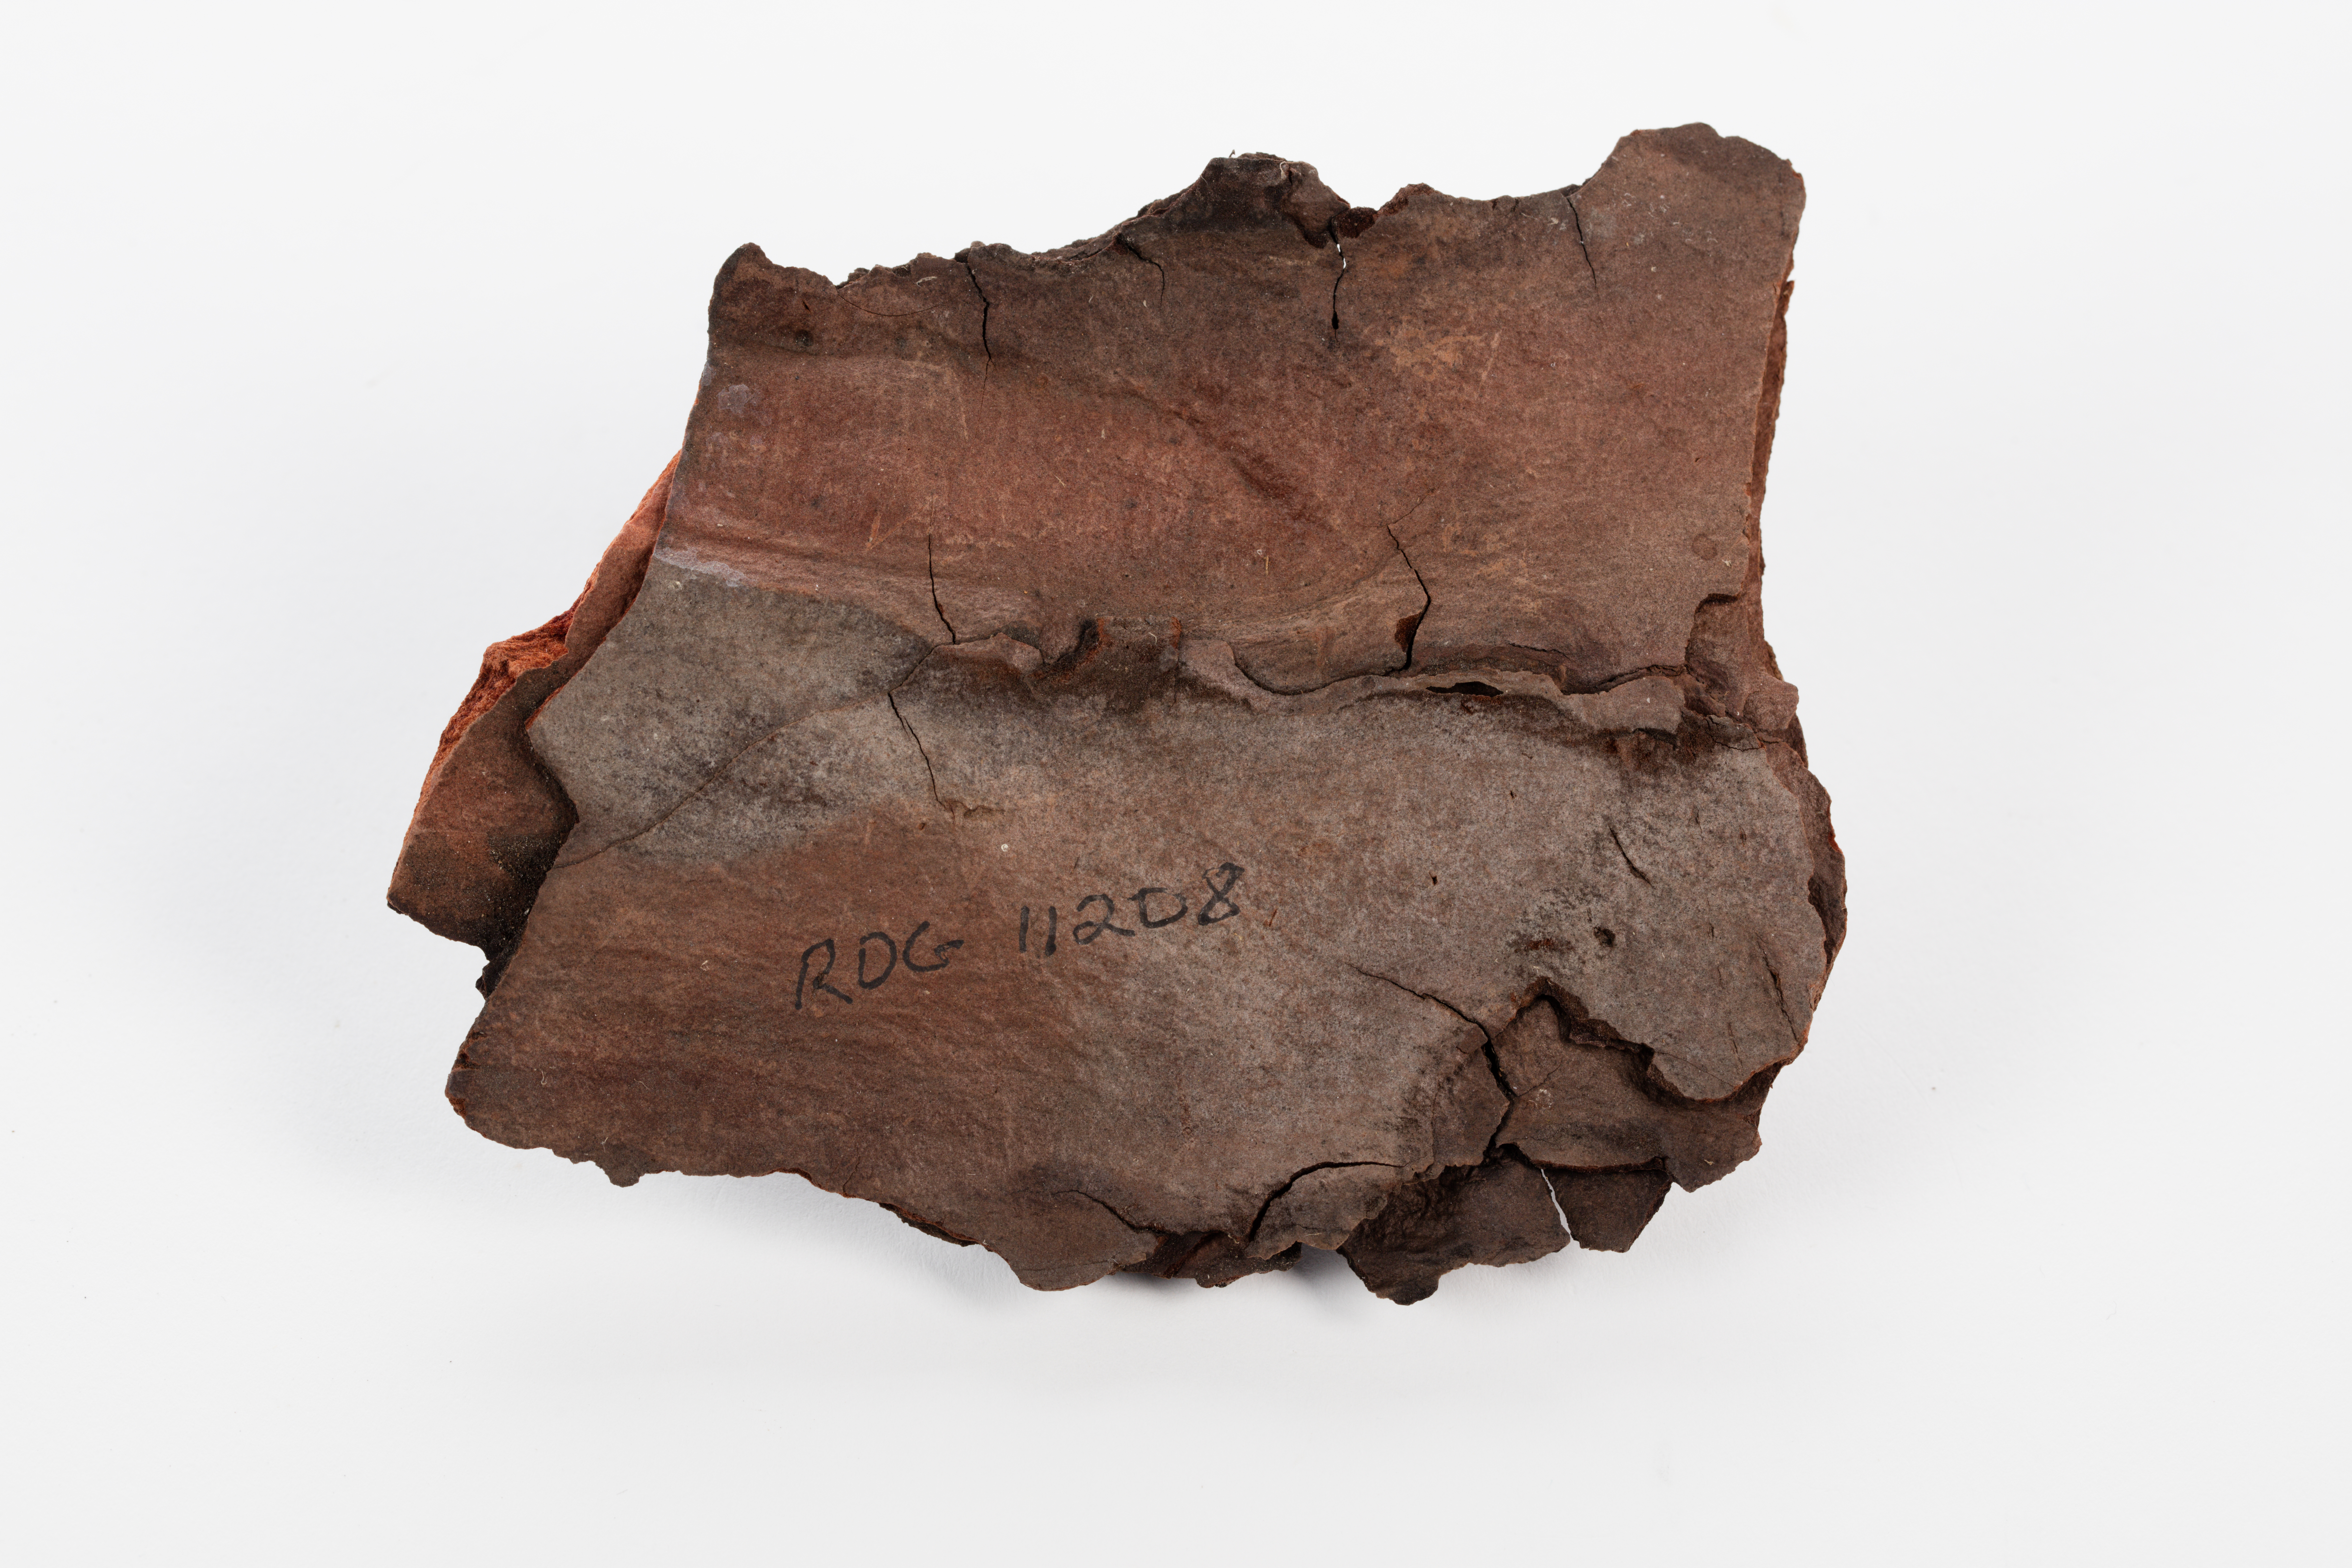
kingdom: Plantae
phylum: Tracheophyta
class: Pinopsida
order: Pinales
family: Pinaceae
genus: Pinus
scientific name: Pinus canariensis
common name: Canary islands pine
